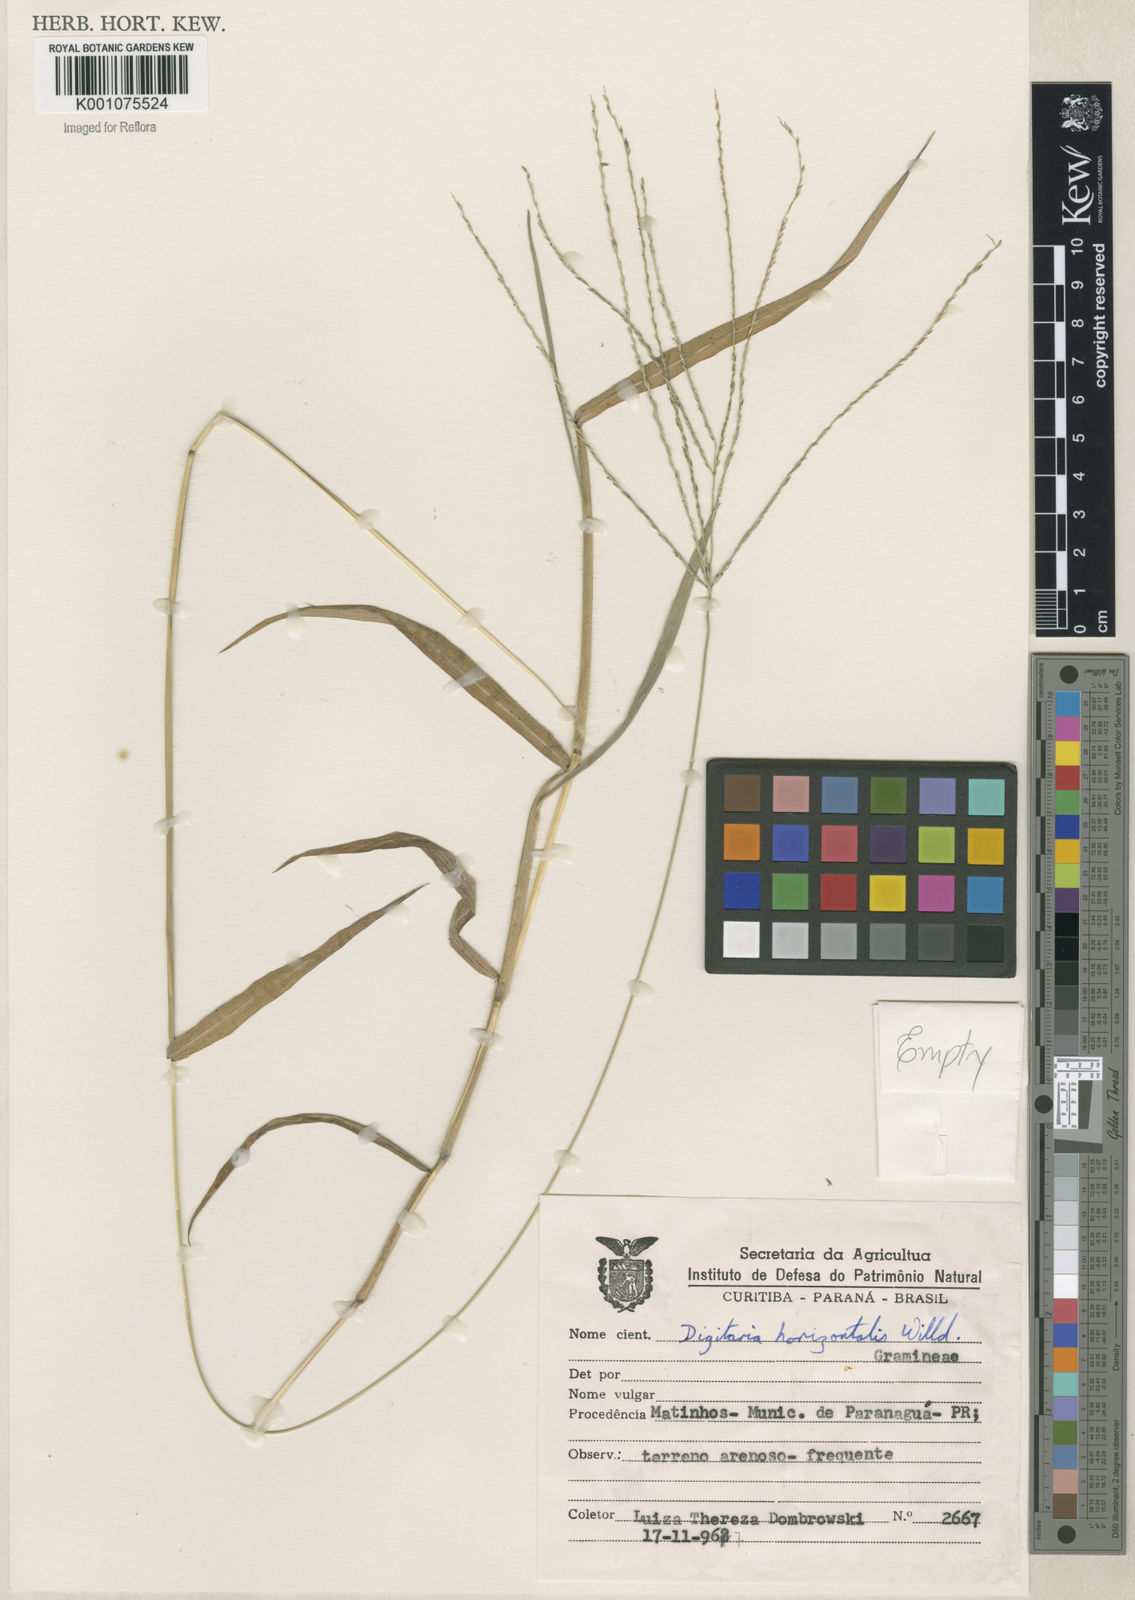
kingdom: Plantae
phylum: Tracheophyta
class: Liliopsida
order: Poales
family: Poaceae
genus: Digitaria
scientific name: Digitaria horizontalis
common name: Jamaican crabgrass
